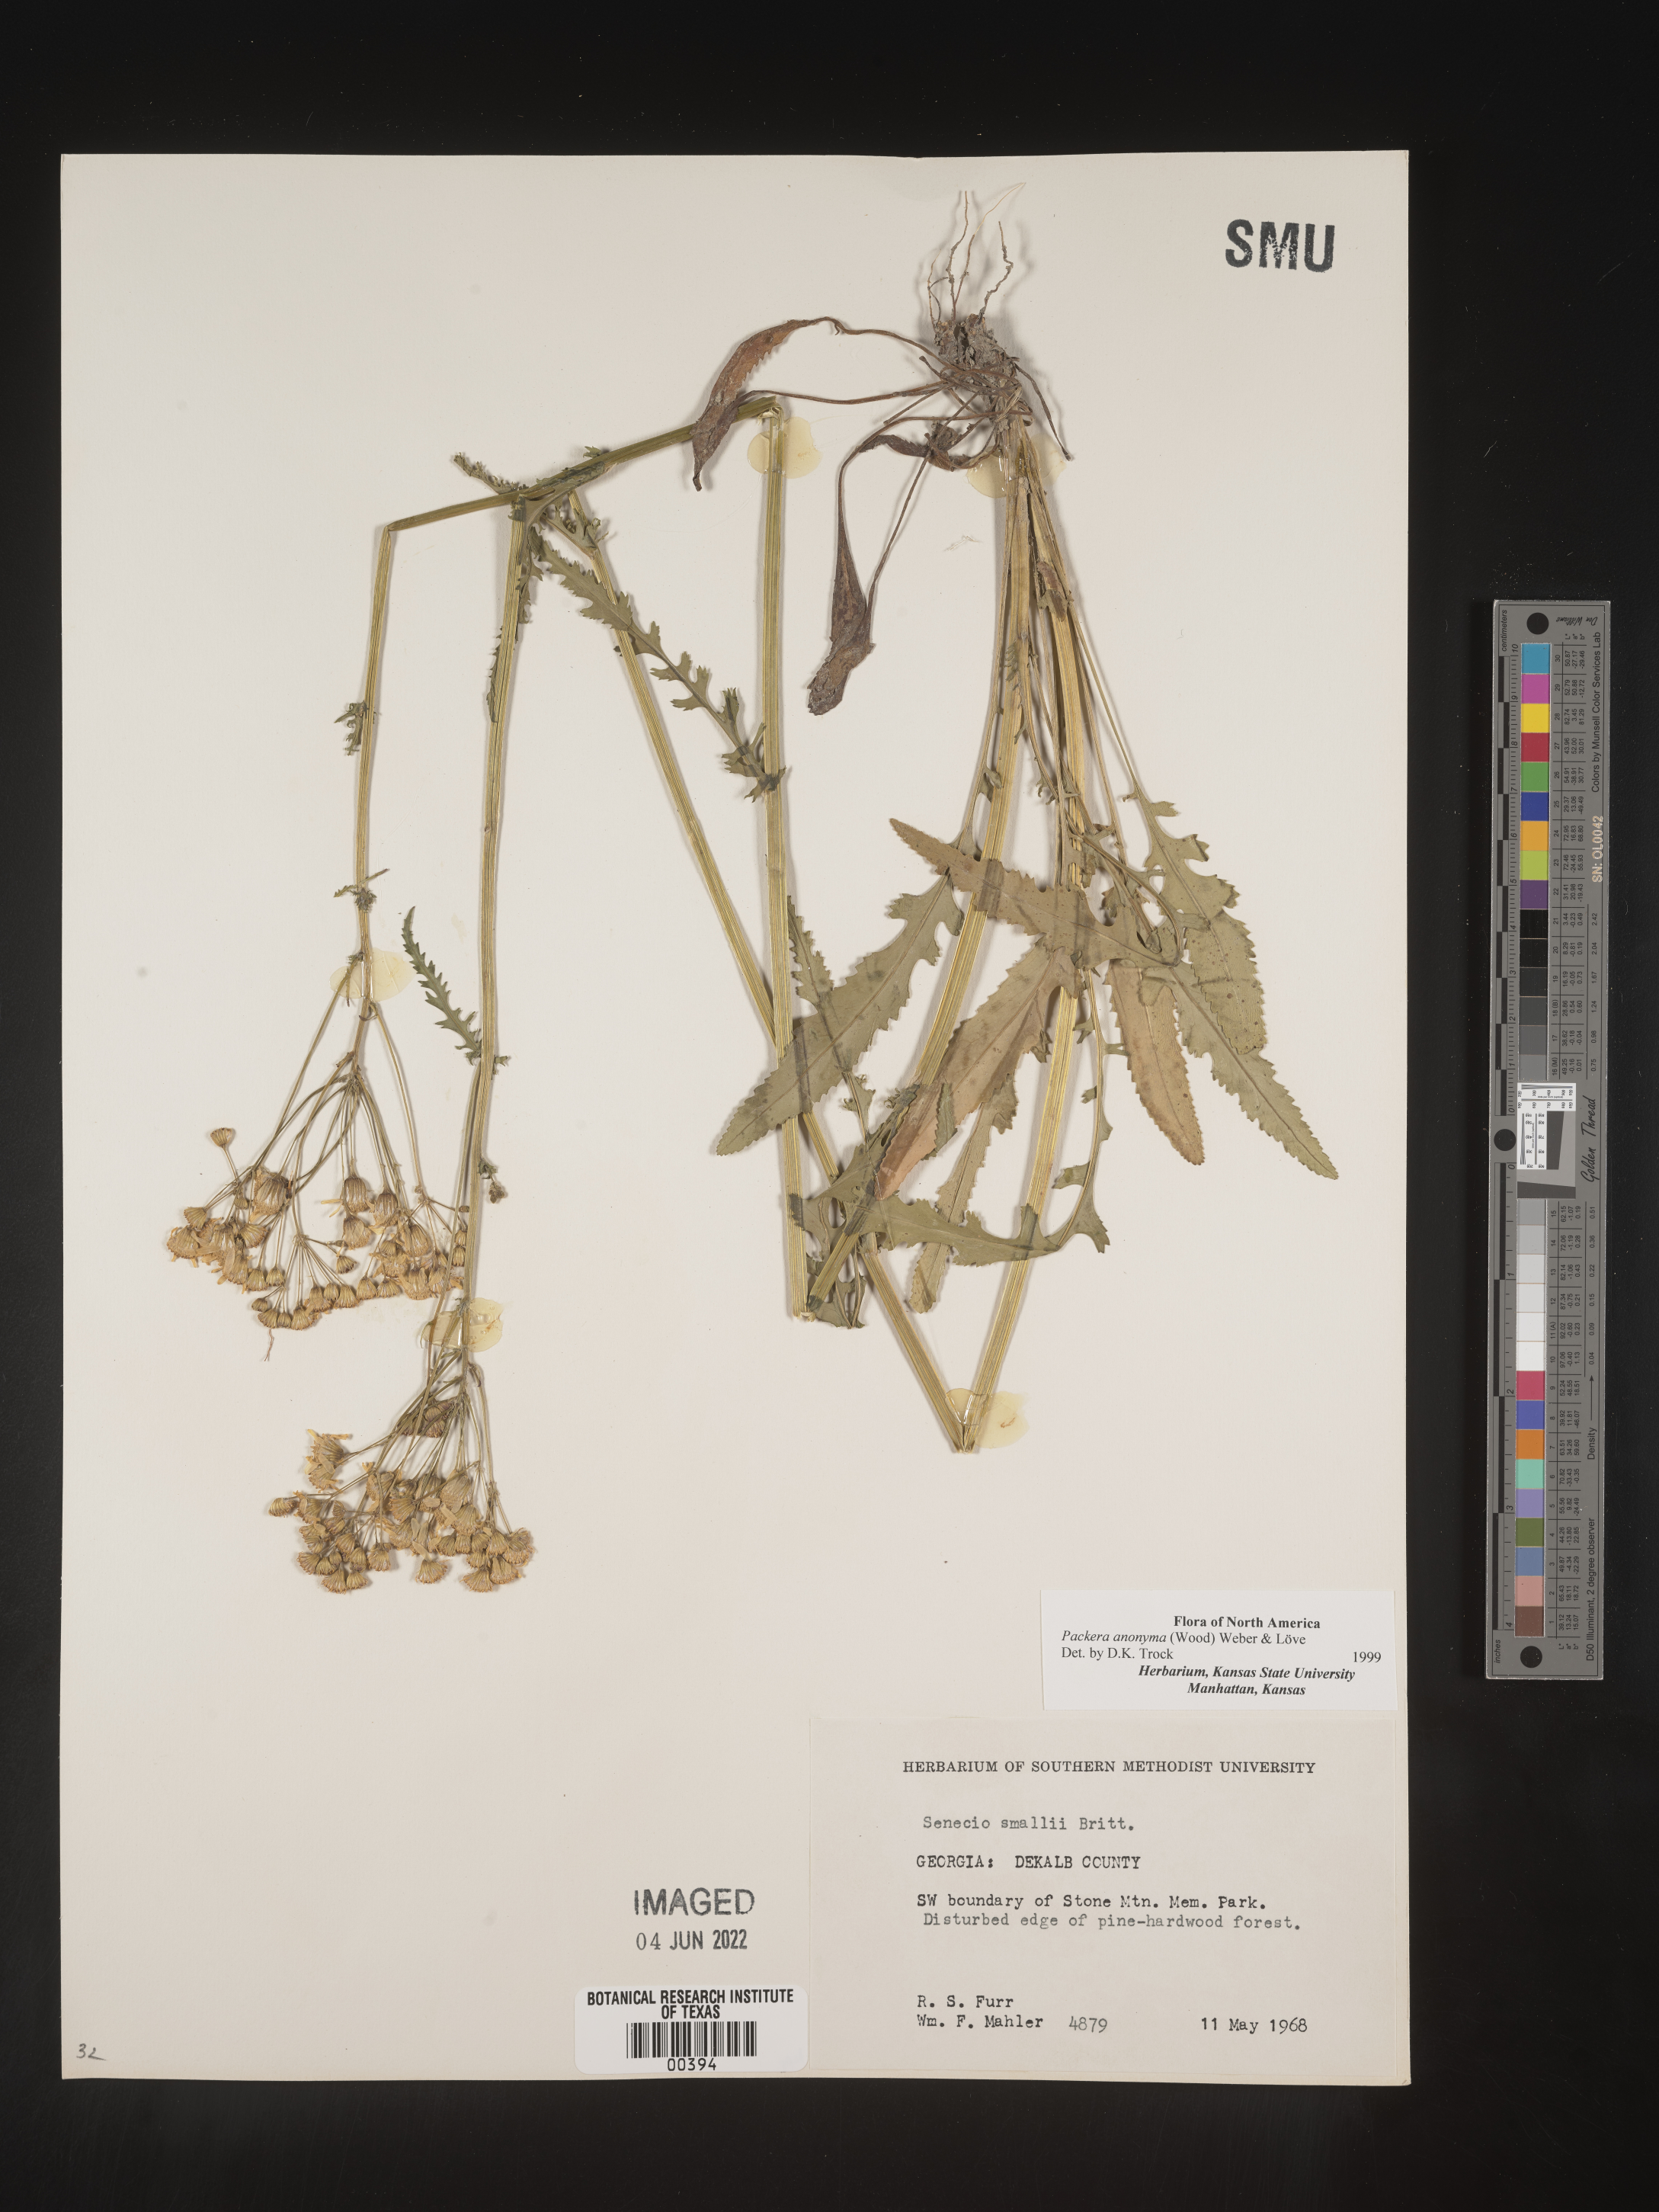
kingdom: Plantae
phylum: Tracheophyta
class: Magnoliopsida
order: Asterales
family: Asteraceae
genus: Packera
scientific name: Packera anonyma
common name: Small ragwort
